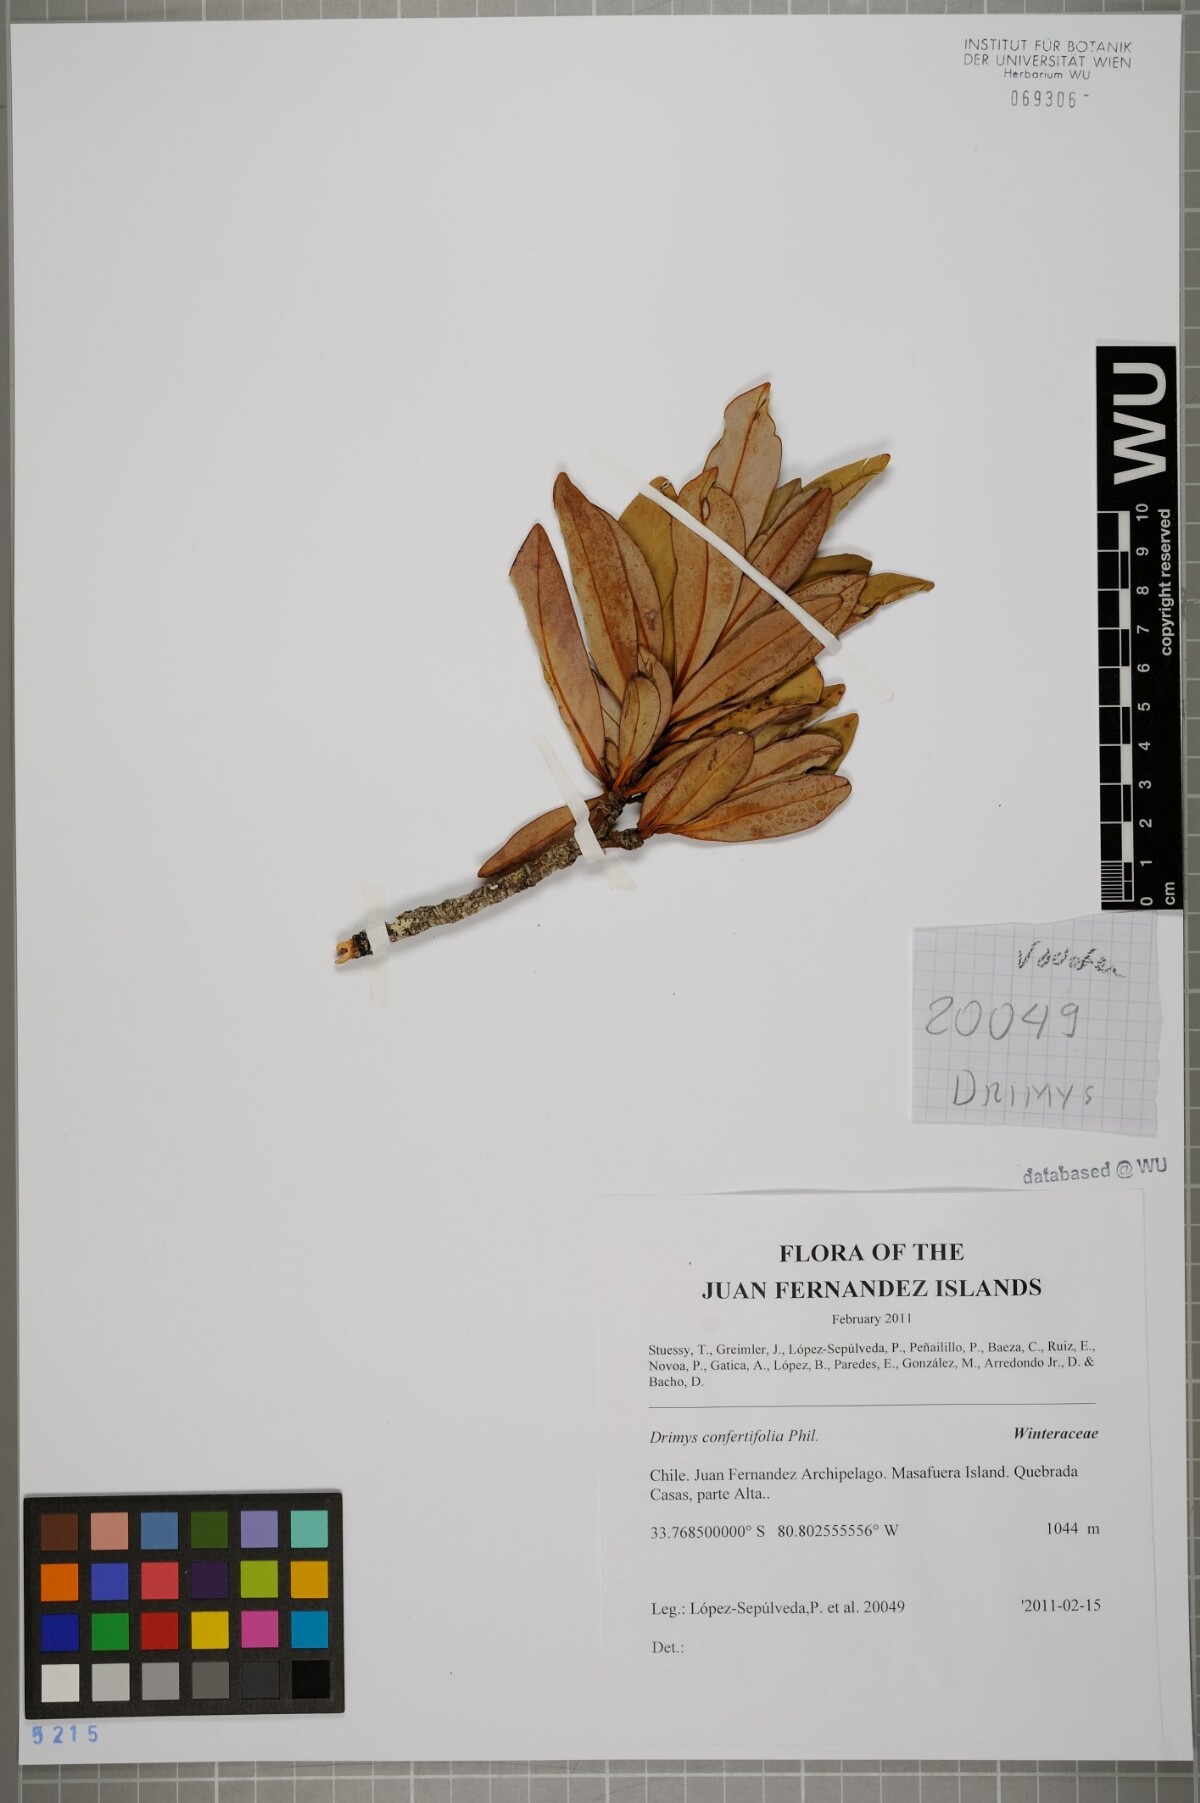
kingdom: Plantae
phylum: Tracheophyta
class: Magnoliopsida
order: Canellales
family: Winteraceae
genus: Drimys
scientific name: Drimys confertiflora
